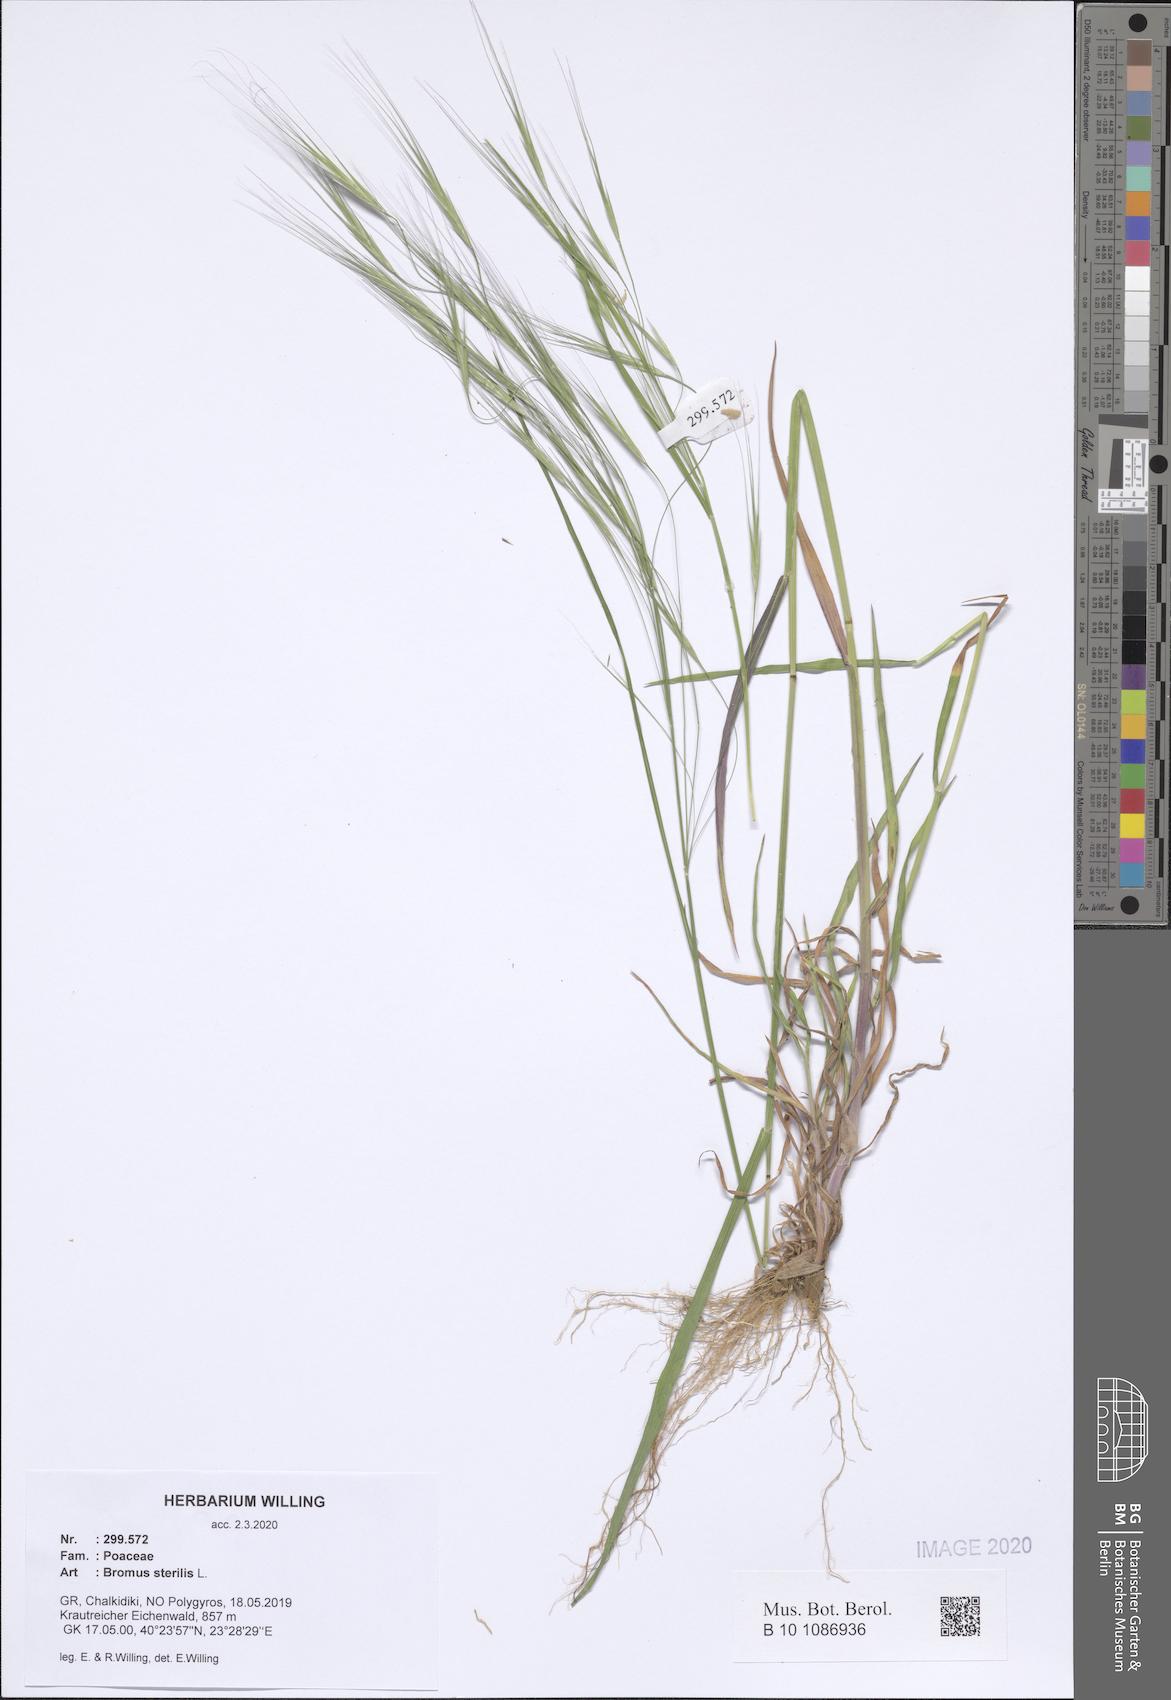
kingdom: Plantae
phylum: Tracheophyta
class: Liliopsida
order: Poales
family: Poaceae
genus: Bromus
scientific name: Bromus sterilis
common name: Poverty brome
